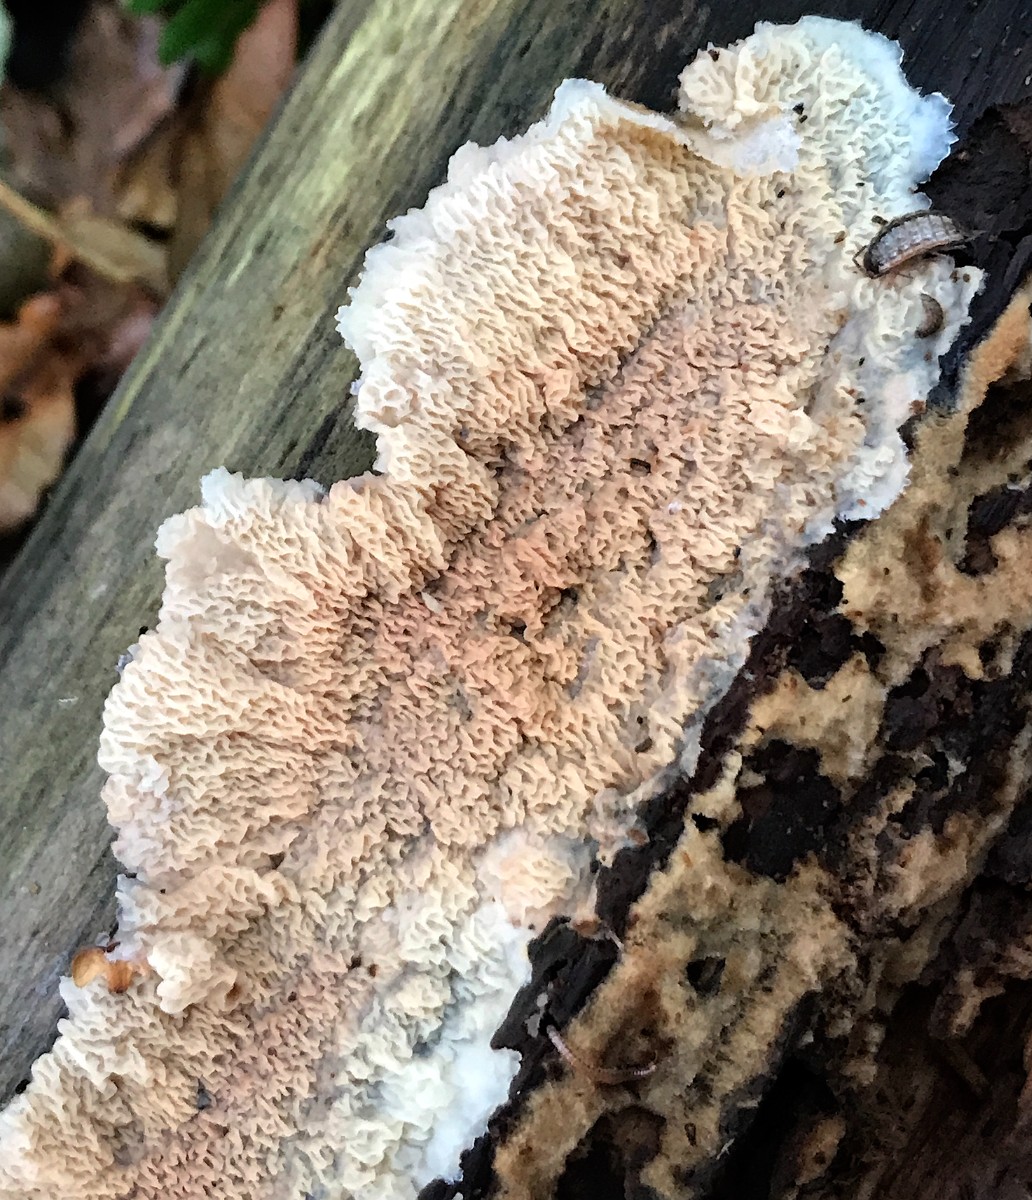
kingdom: Fungi
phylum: Basidiomycota
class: Agaricomycetes
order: Polyporales
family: Meruliaceae
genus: Phlebia
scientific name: Phlebia tremellosa
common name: bævrende åresvamp
